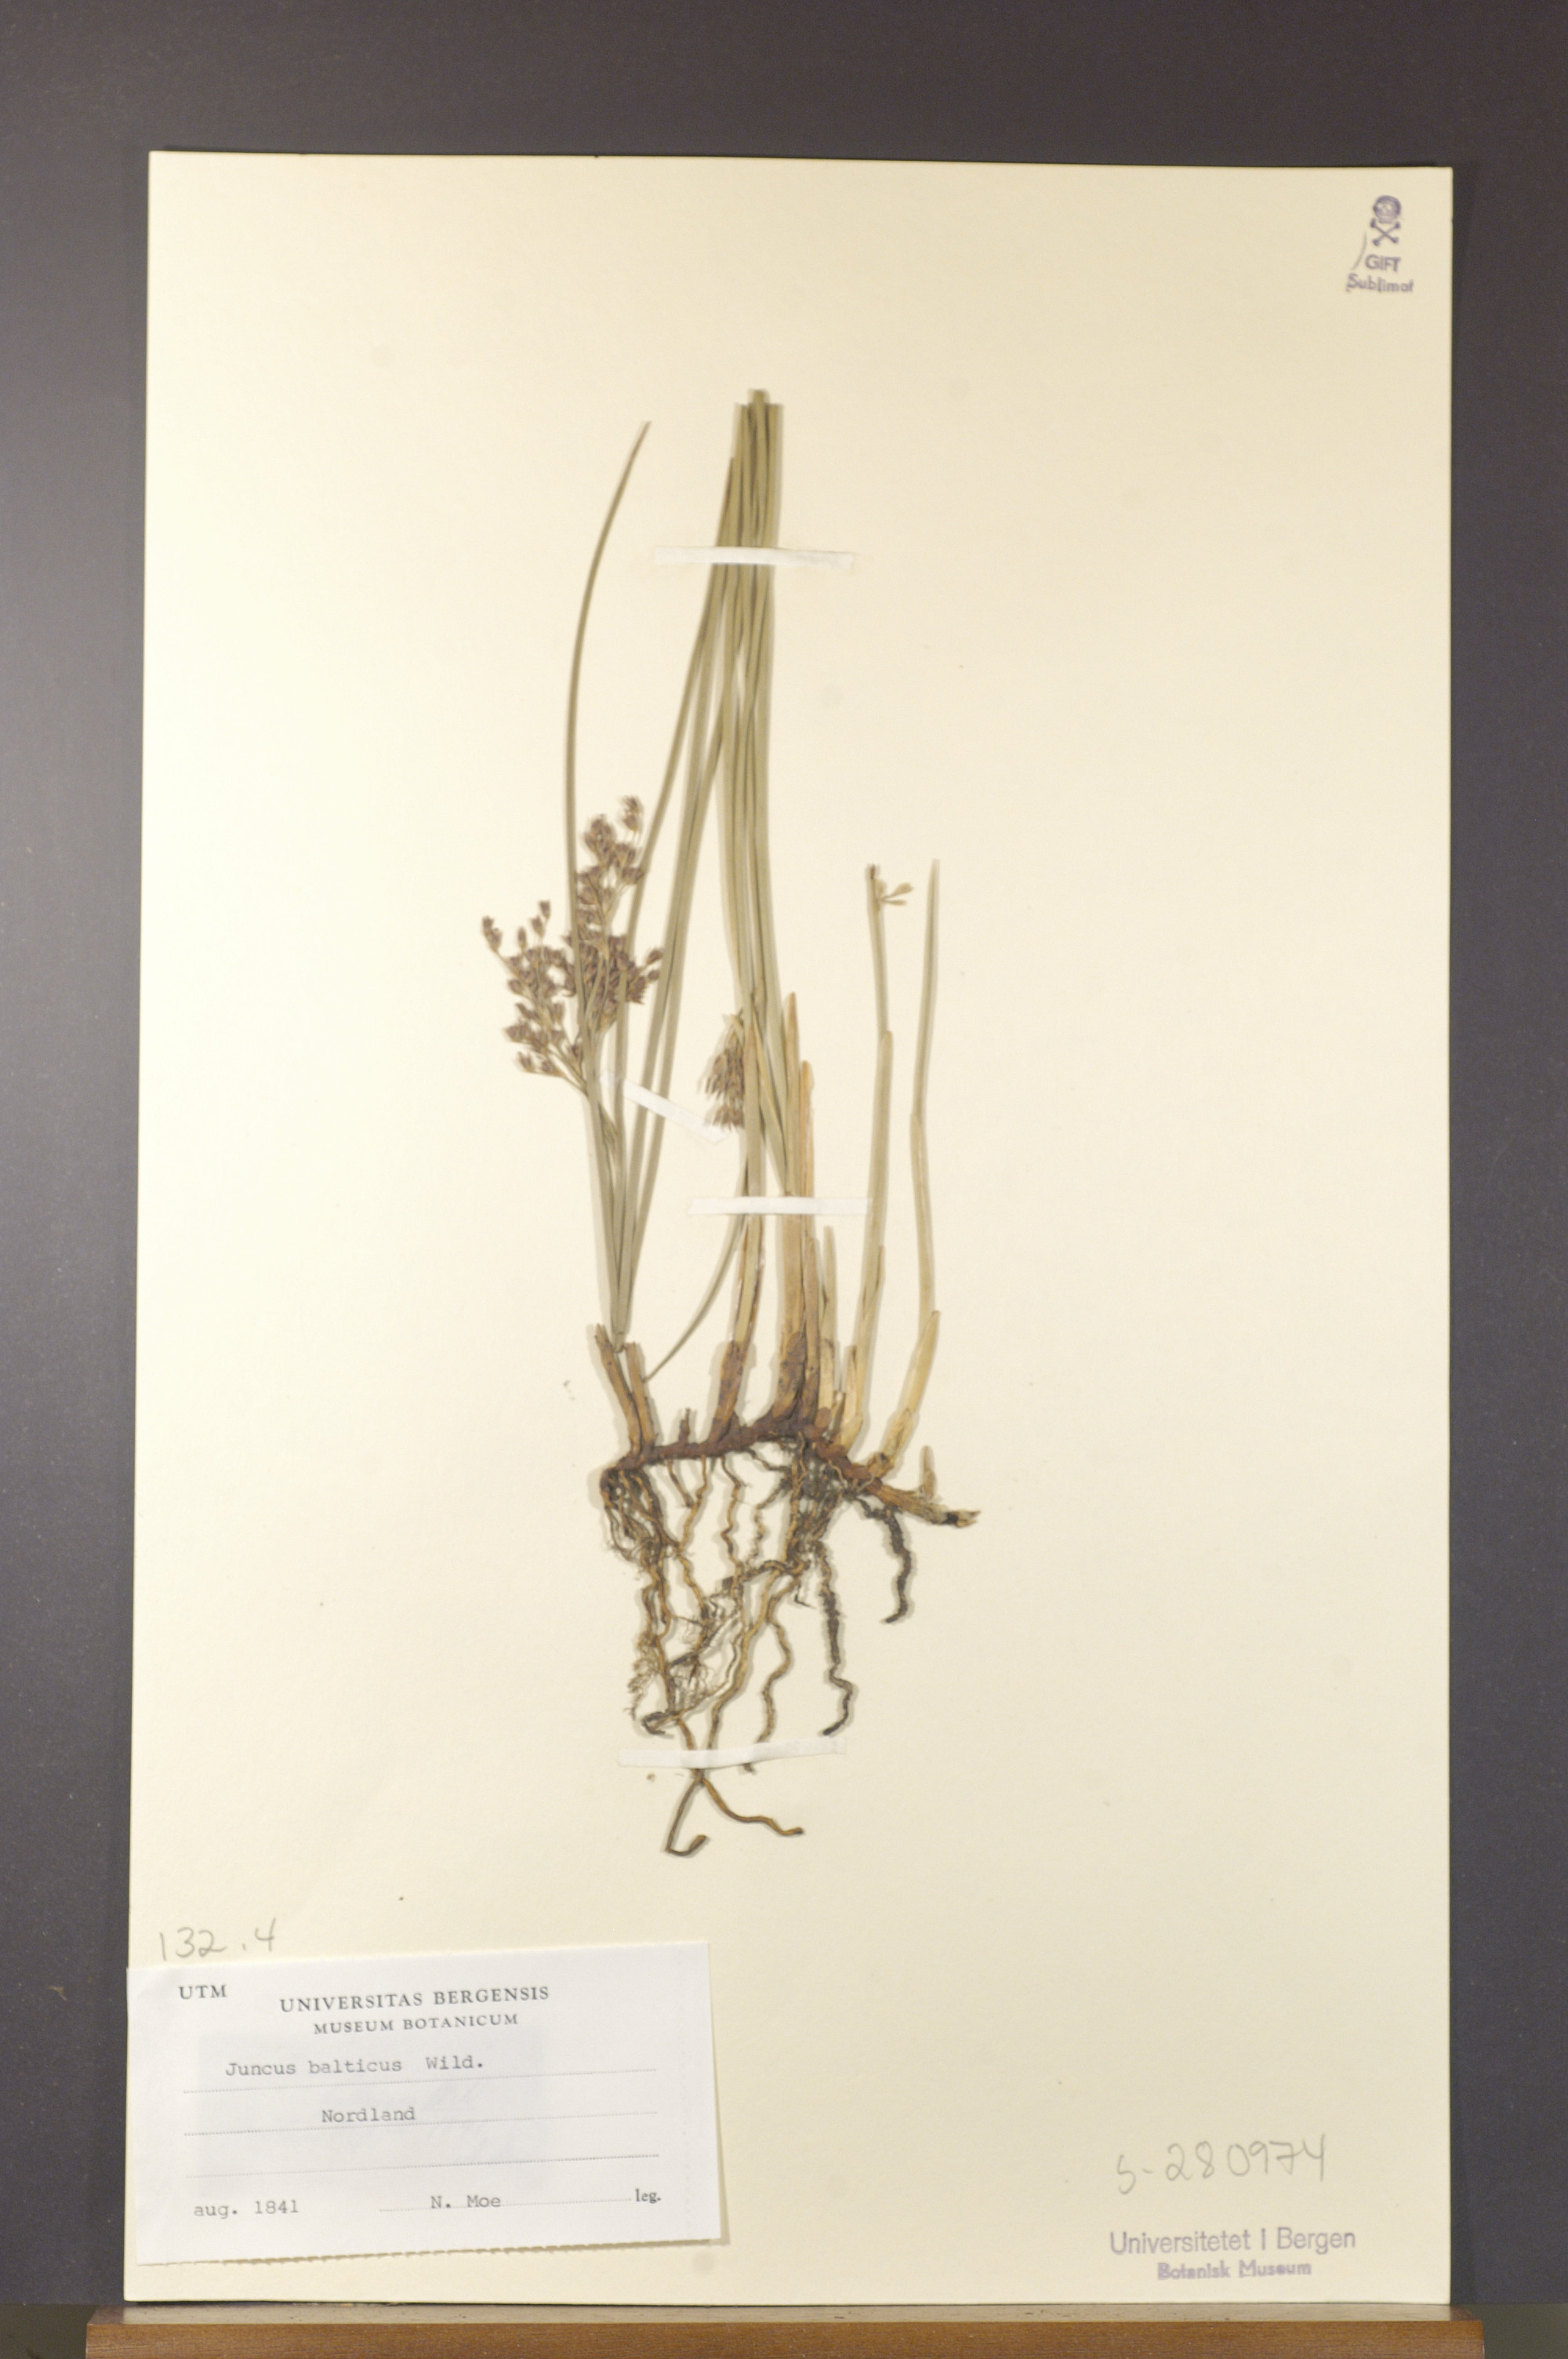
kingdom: Plantae
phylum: Tracheophyta
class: Liliopsida
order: Poales
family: Juncaceae
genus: Juncus
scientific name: Juncus balticus
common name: Baltic rush
